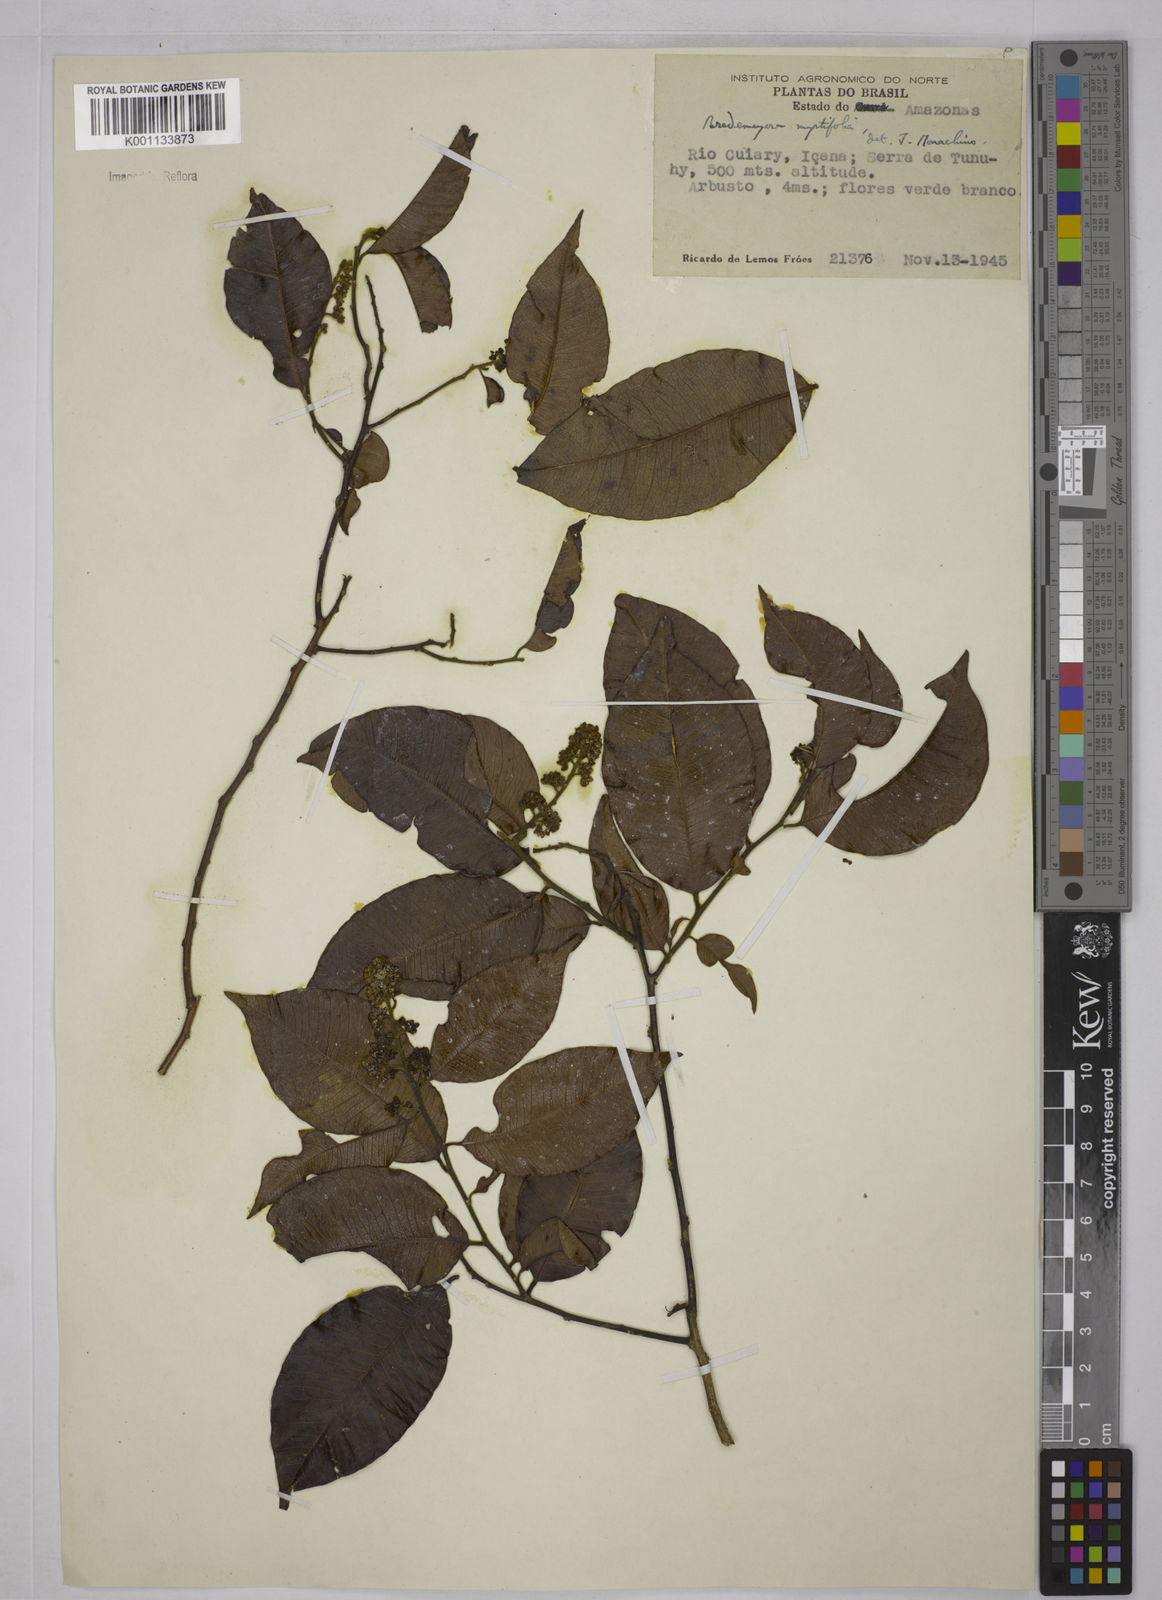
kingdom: Plantae
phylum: Tracheophyta
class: Magnoliopsida
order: Fabales
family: Polygalaceae
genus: Bredemeyera
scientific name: Bredemeyera
